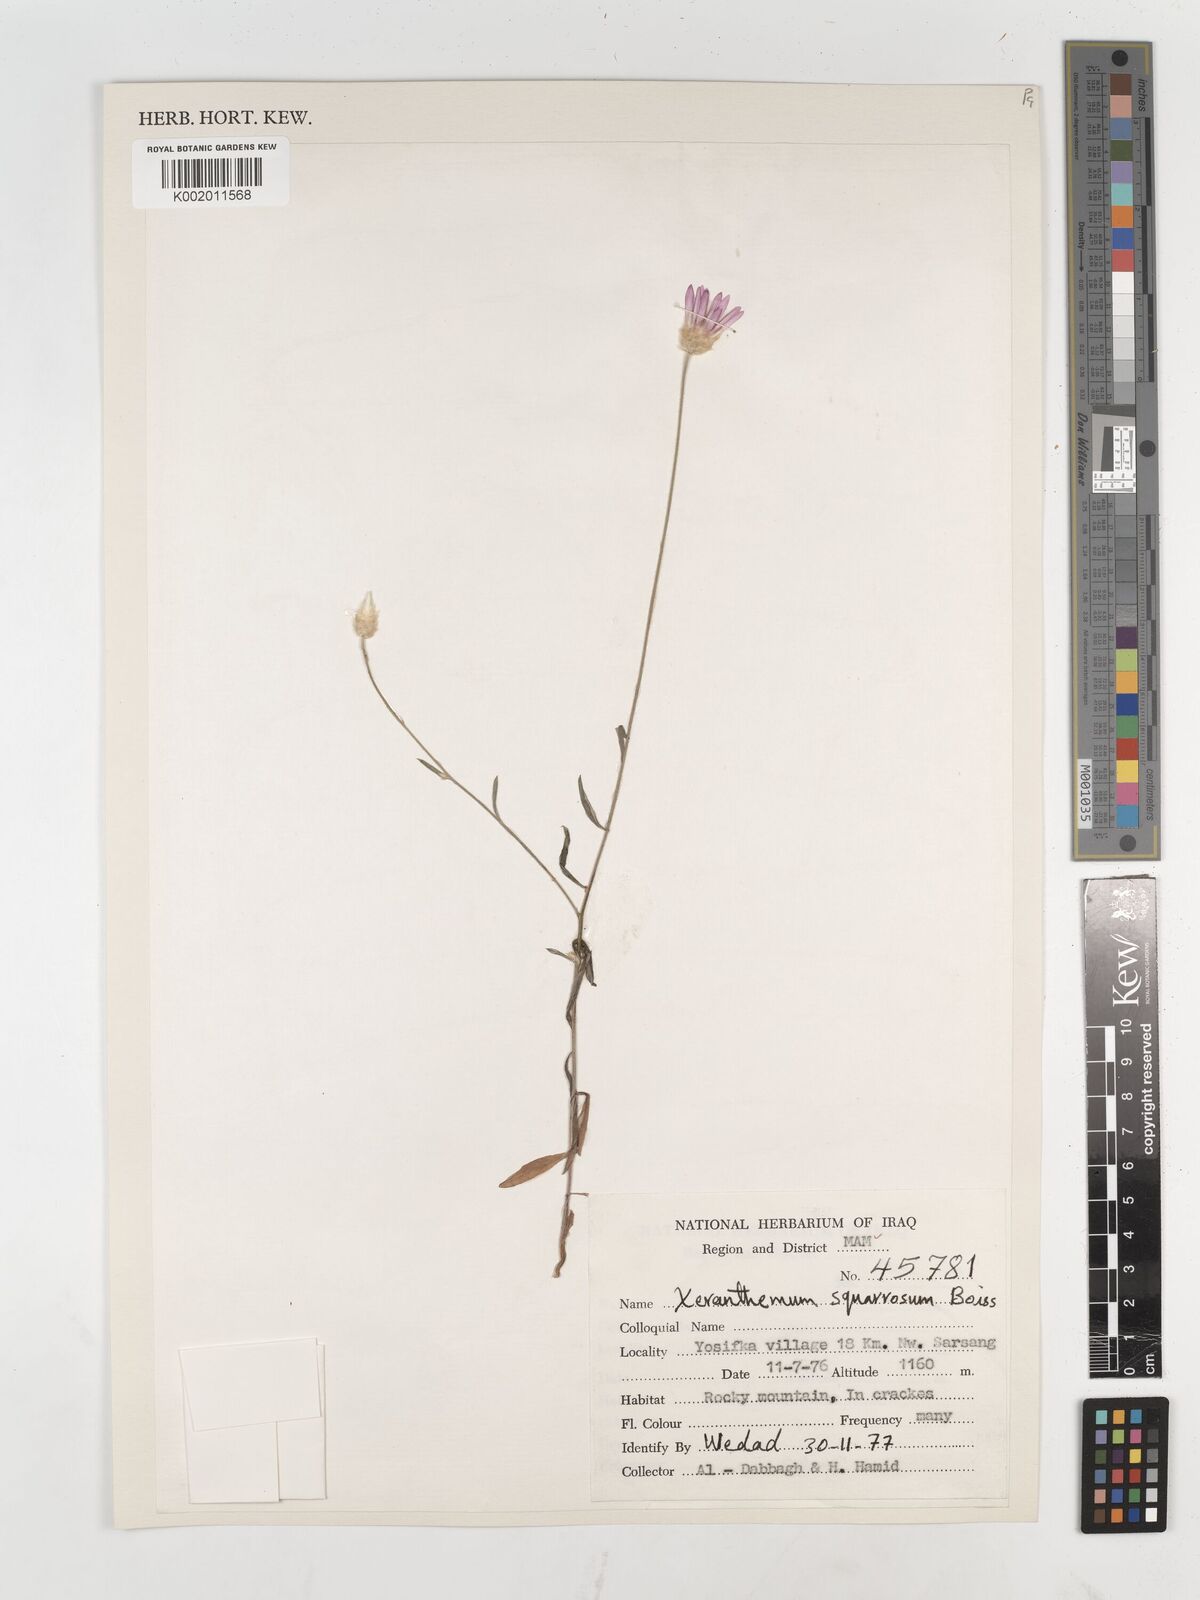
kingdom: Plantae
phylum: Tracheophyta
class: Magnoliopsida
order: Asterales
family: Asteraceae
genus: Xeranthemum
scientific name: Xeranthemum annuum
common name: Immortelle
